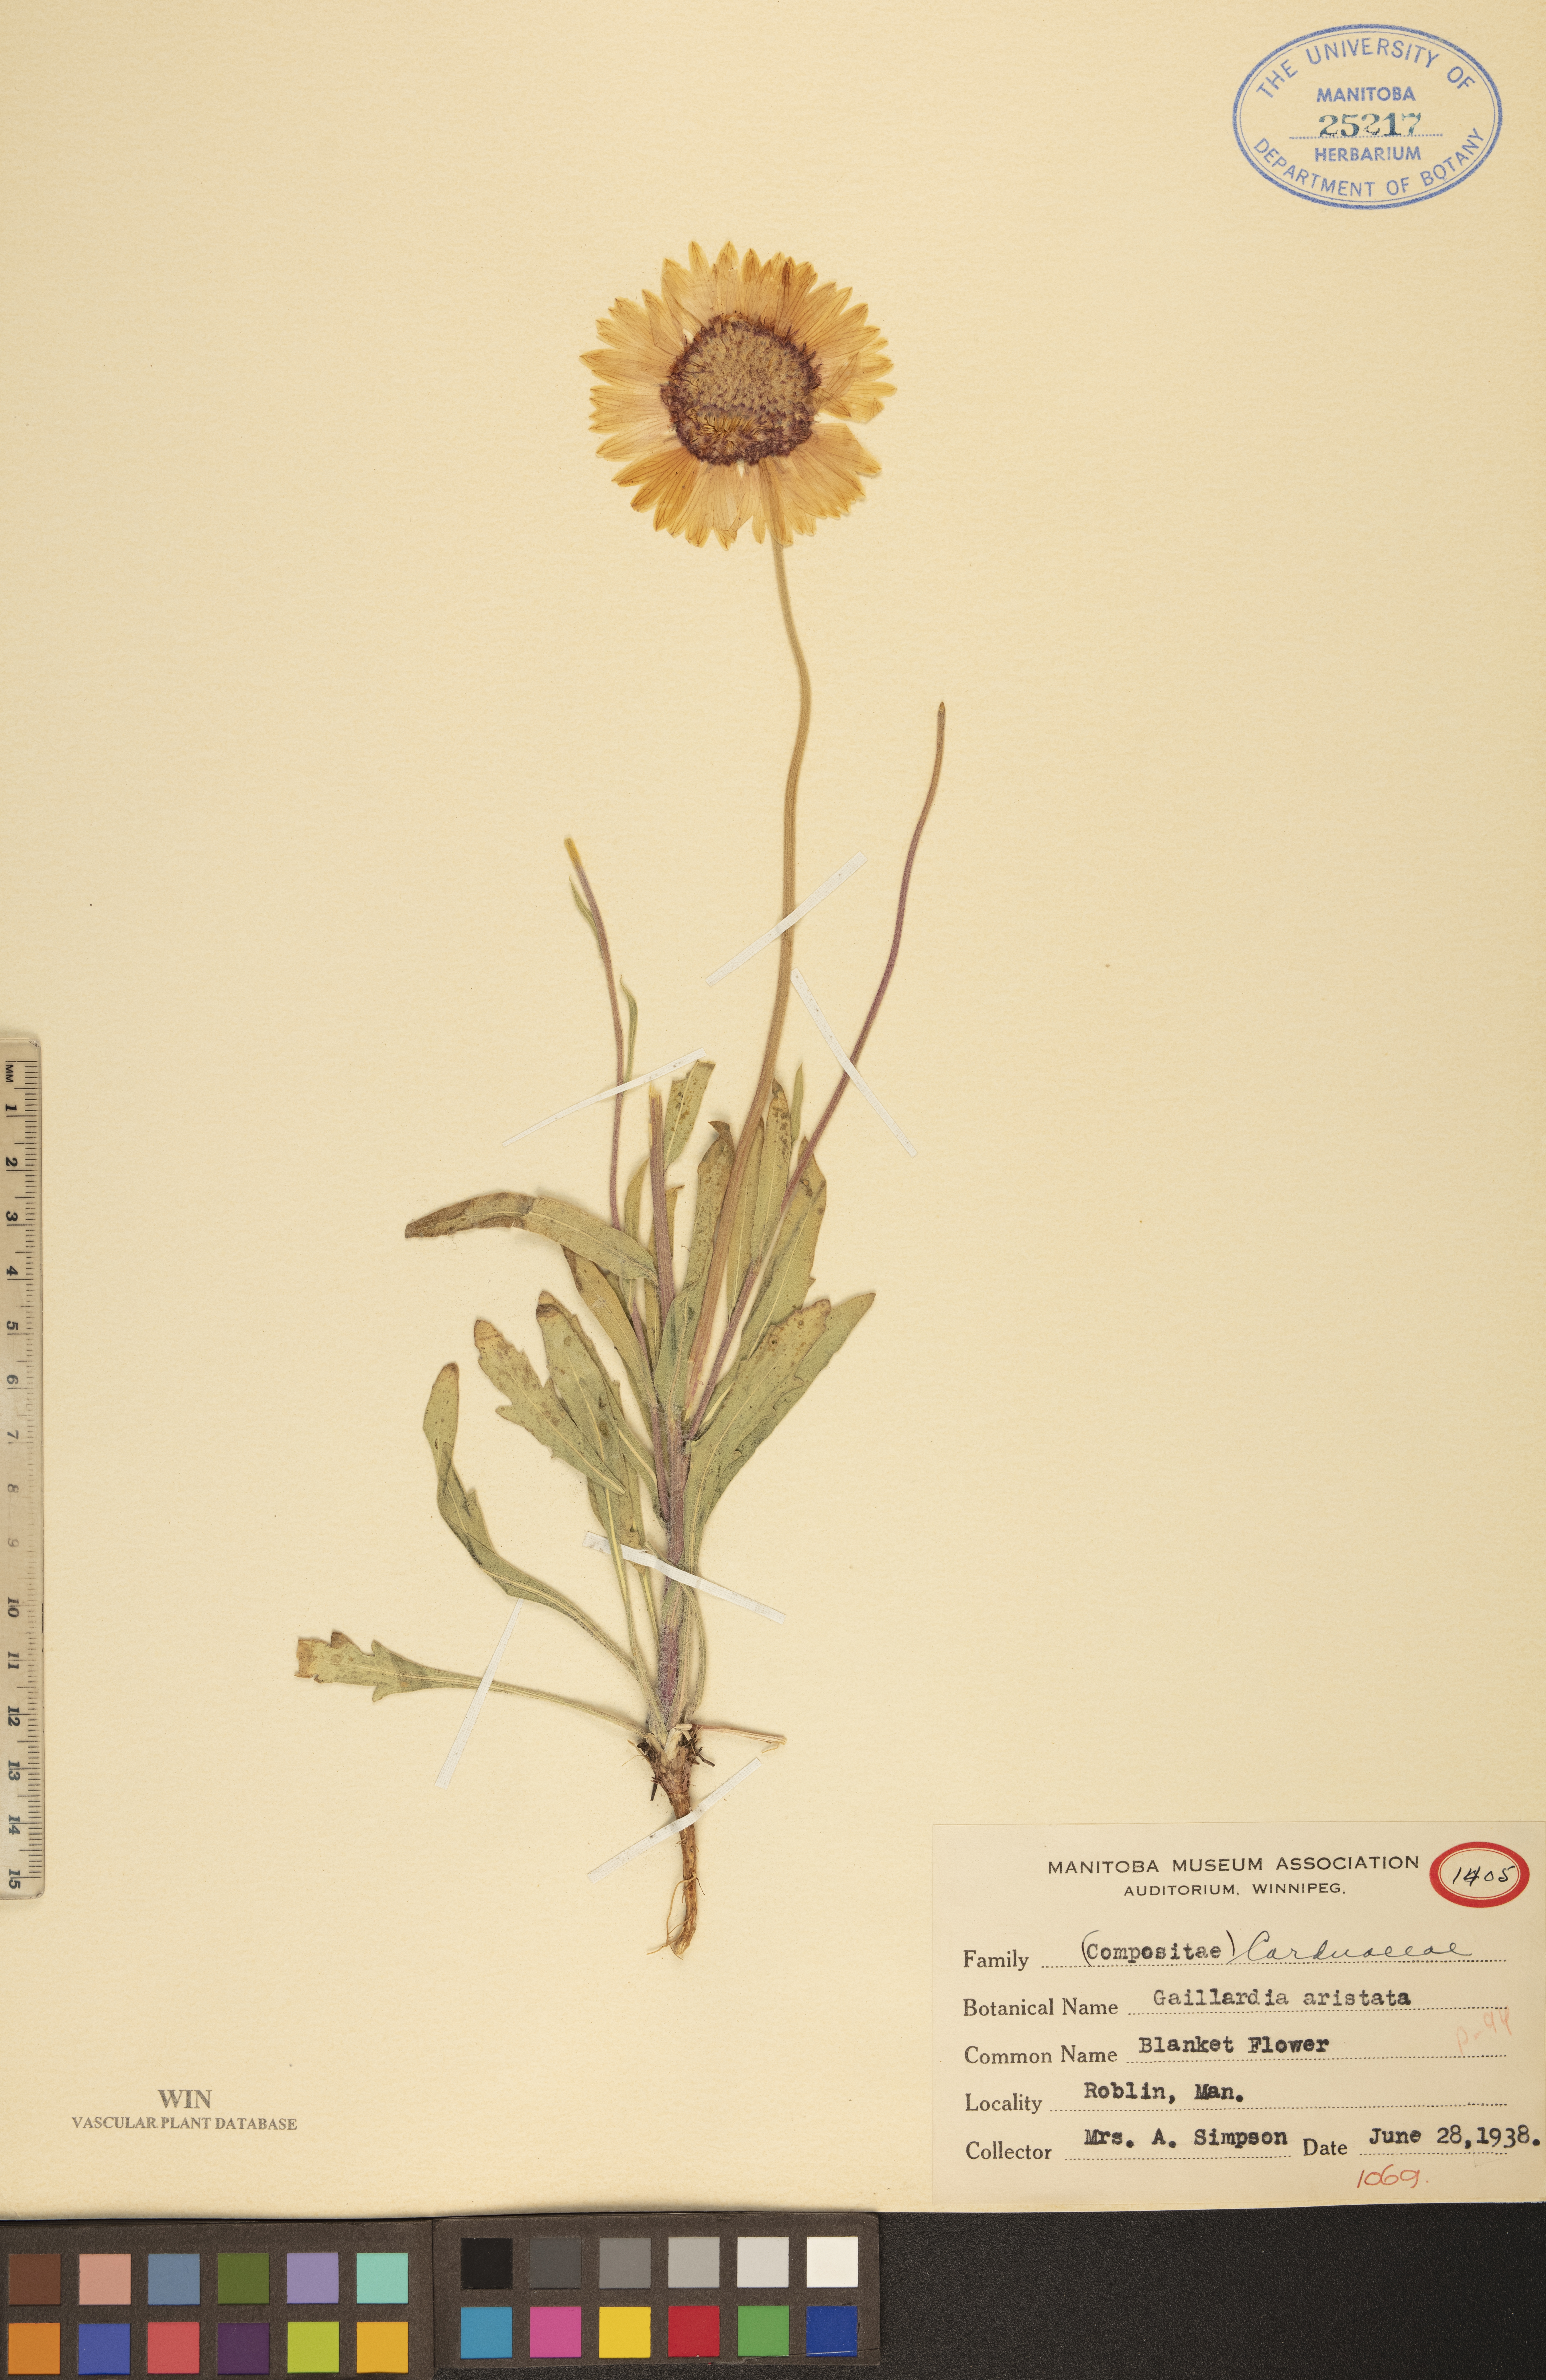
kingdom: Plantae
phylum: Tracheophyta
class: Magnoliopsida
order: Asterales
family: Asteraceae
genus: Gaillardia
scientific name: Gaillardia aristata
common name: Blanket-flower
